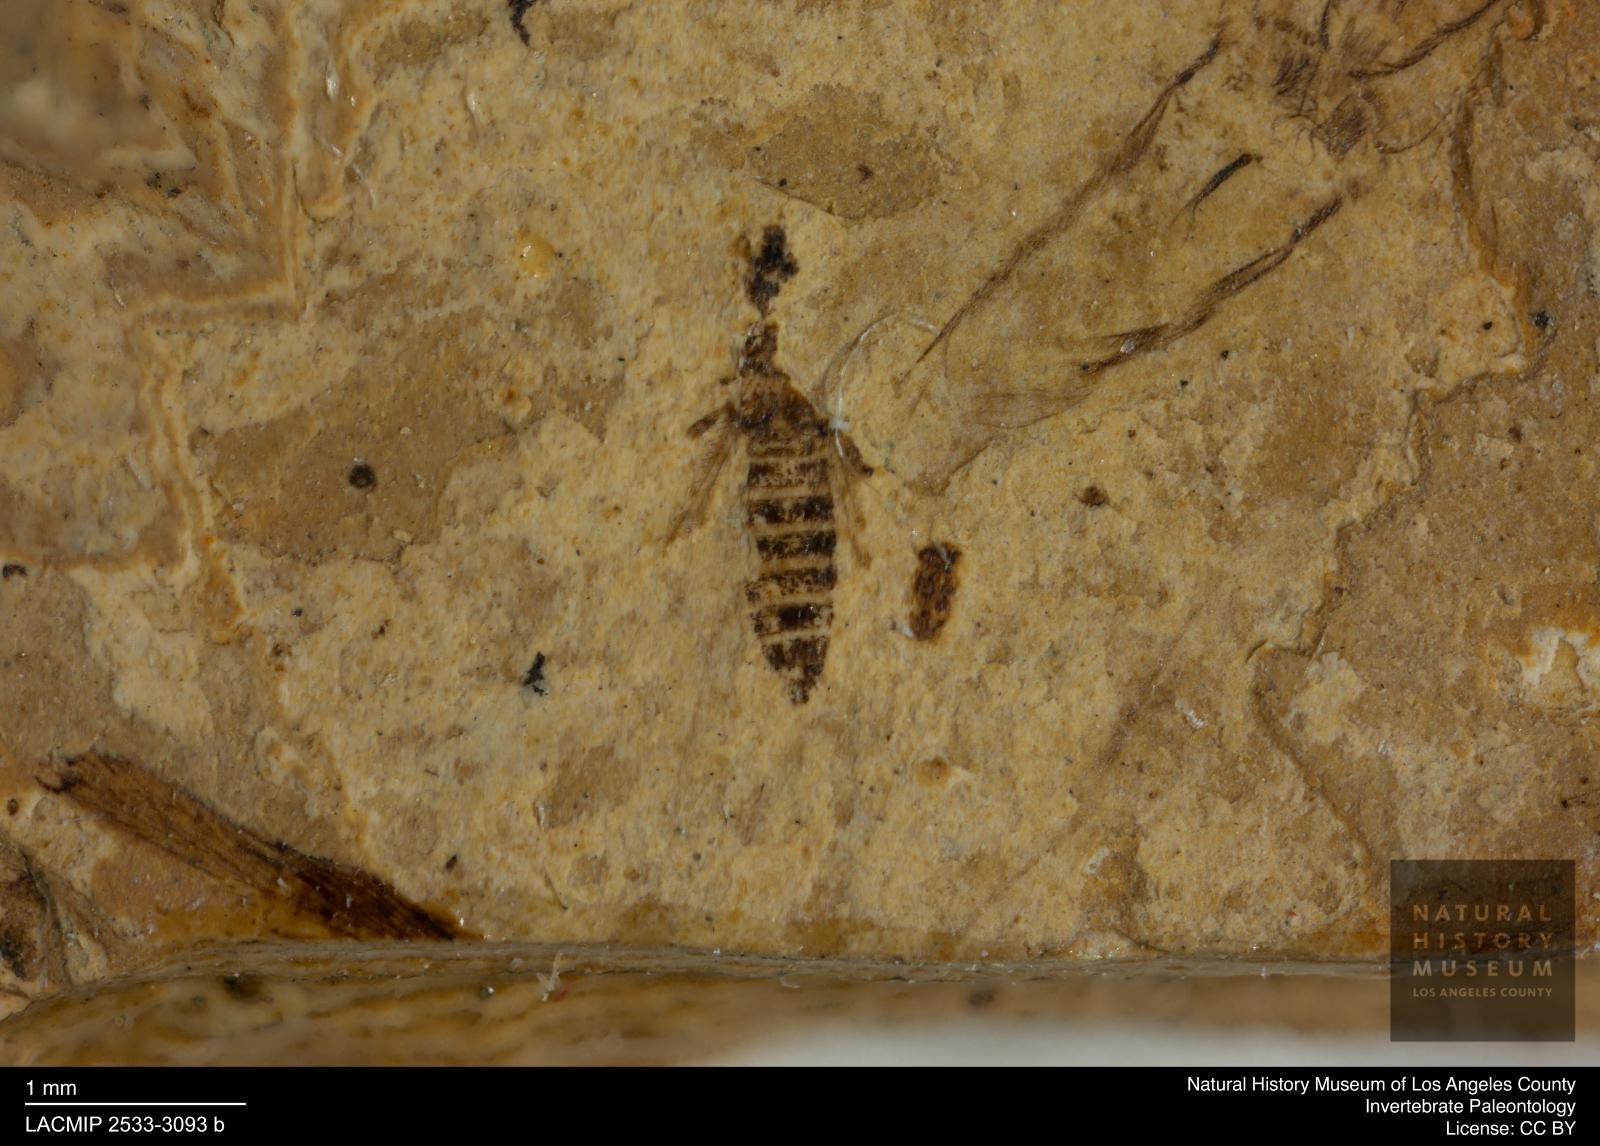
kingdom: Animalia
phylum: Arthropoda
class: Insecta
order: Thysanoptera
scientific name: Thysanoptera
